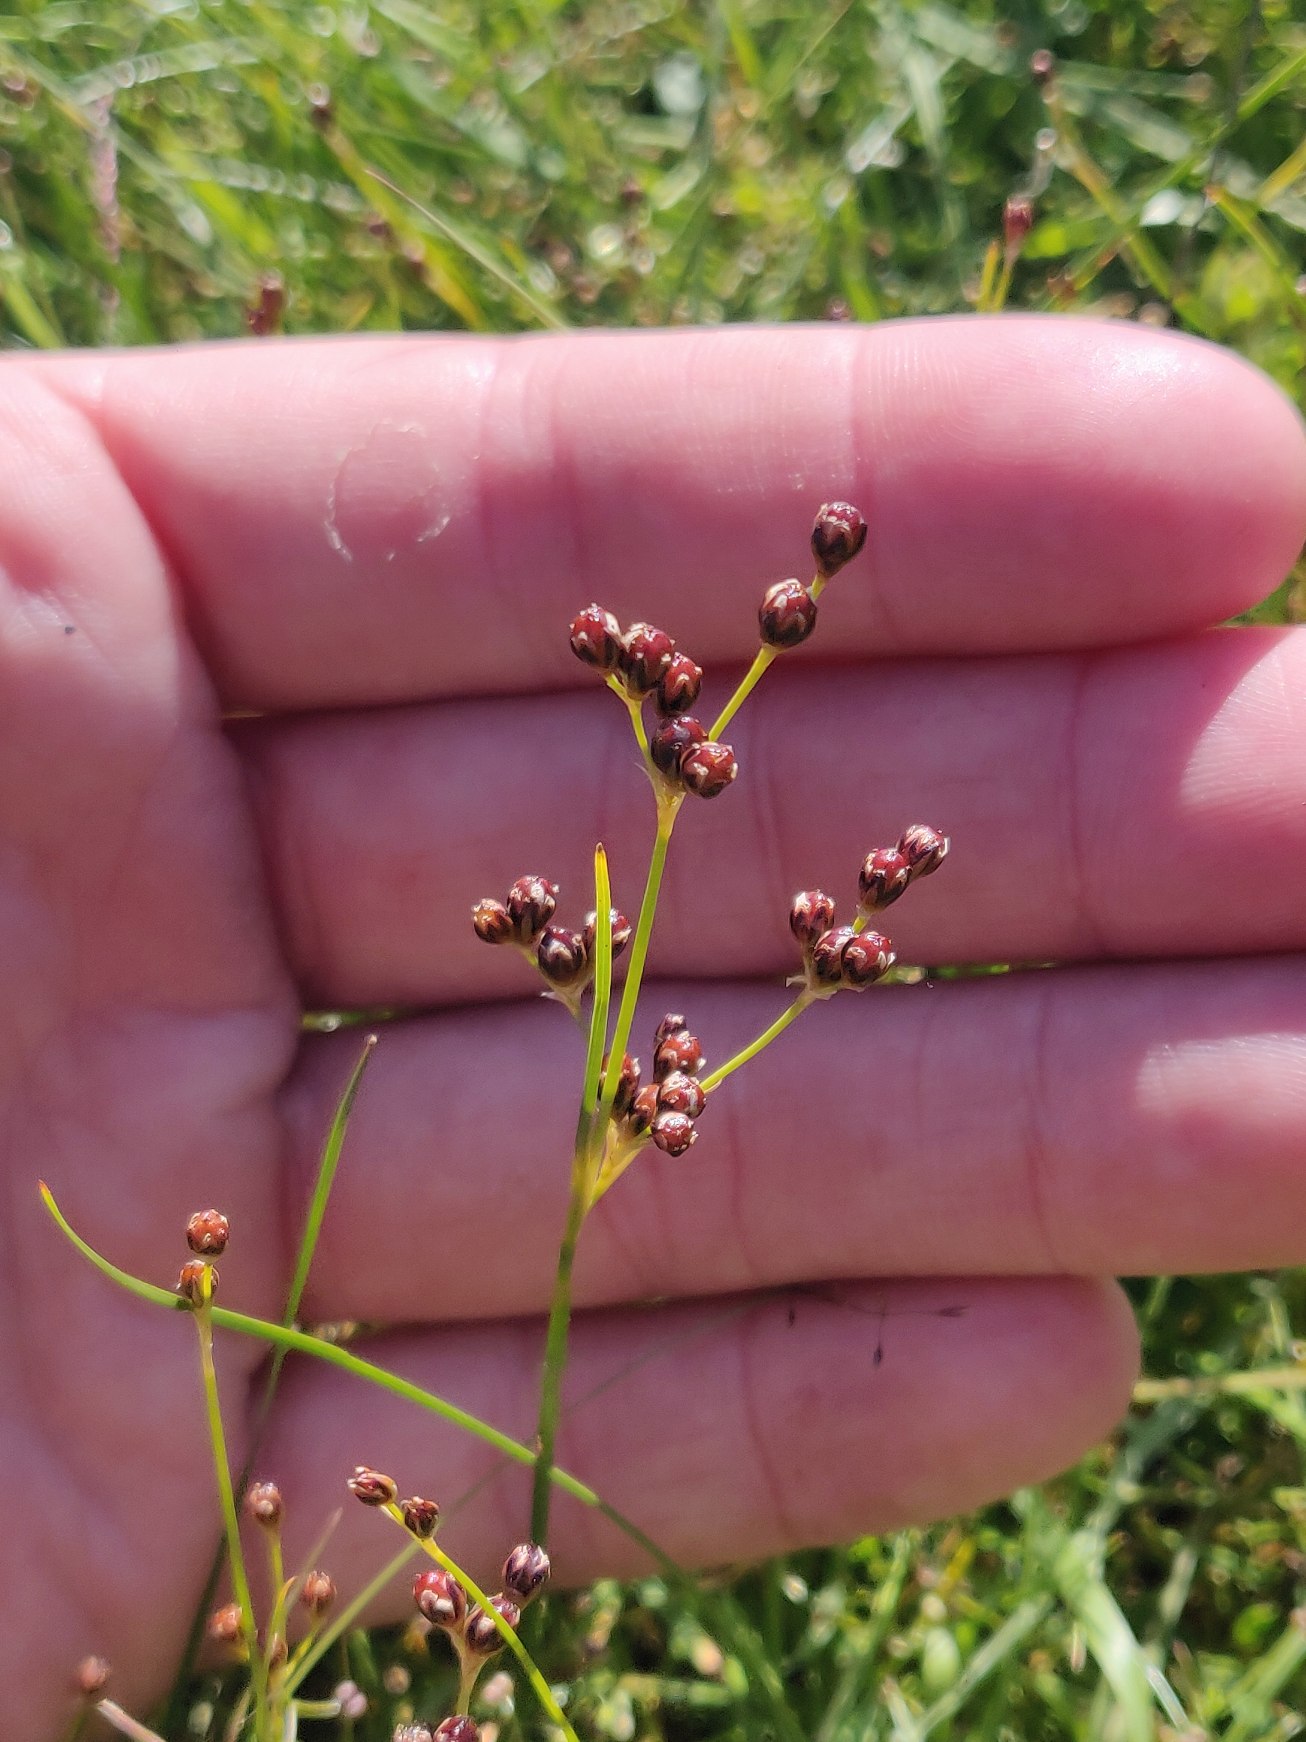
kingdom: Plantae
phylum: Tracheophyta
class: Liliopsida
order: Poales
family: Juncaceae
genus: Juncus
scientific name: Juncus gerardi
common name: Harril
